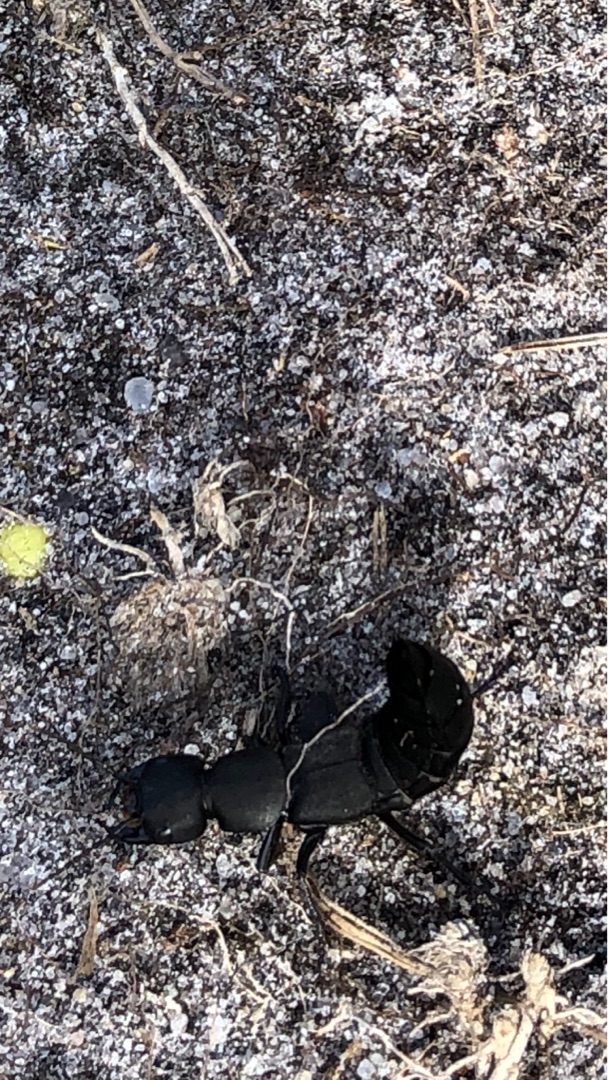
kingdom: Animalia
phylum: Arthropoda
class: Insecta
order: Coleoptera
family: Staphylinidae
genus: Ocypus
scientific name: Ocypus olens
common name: Stor rovbille
